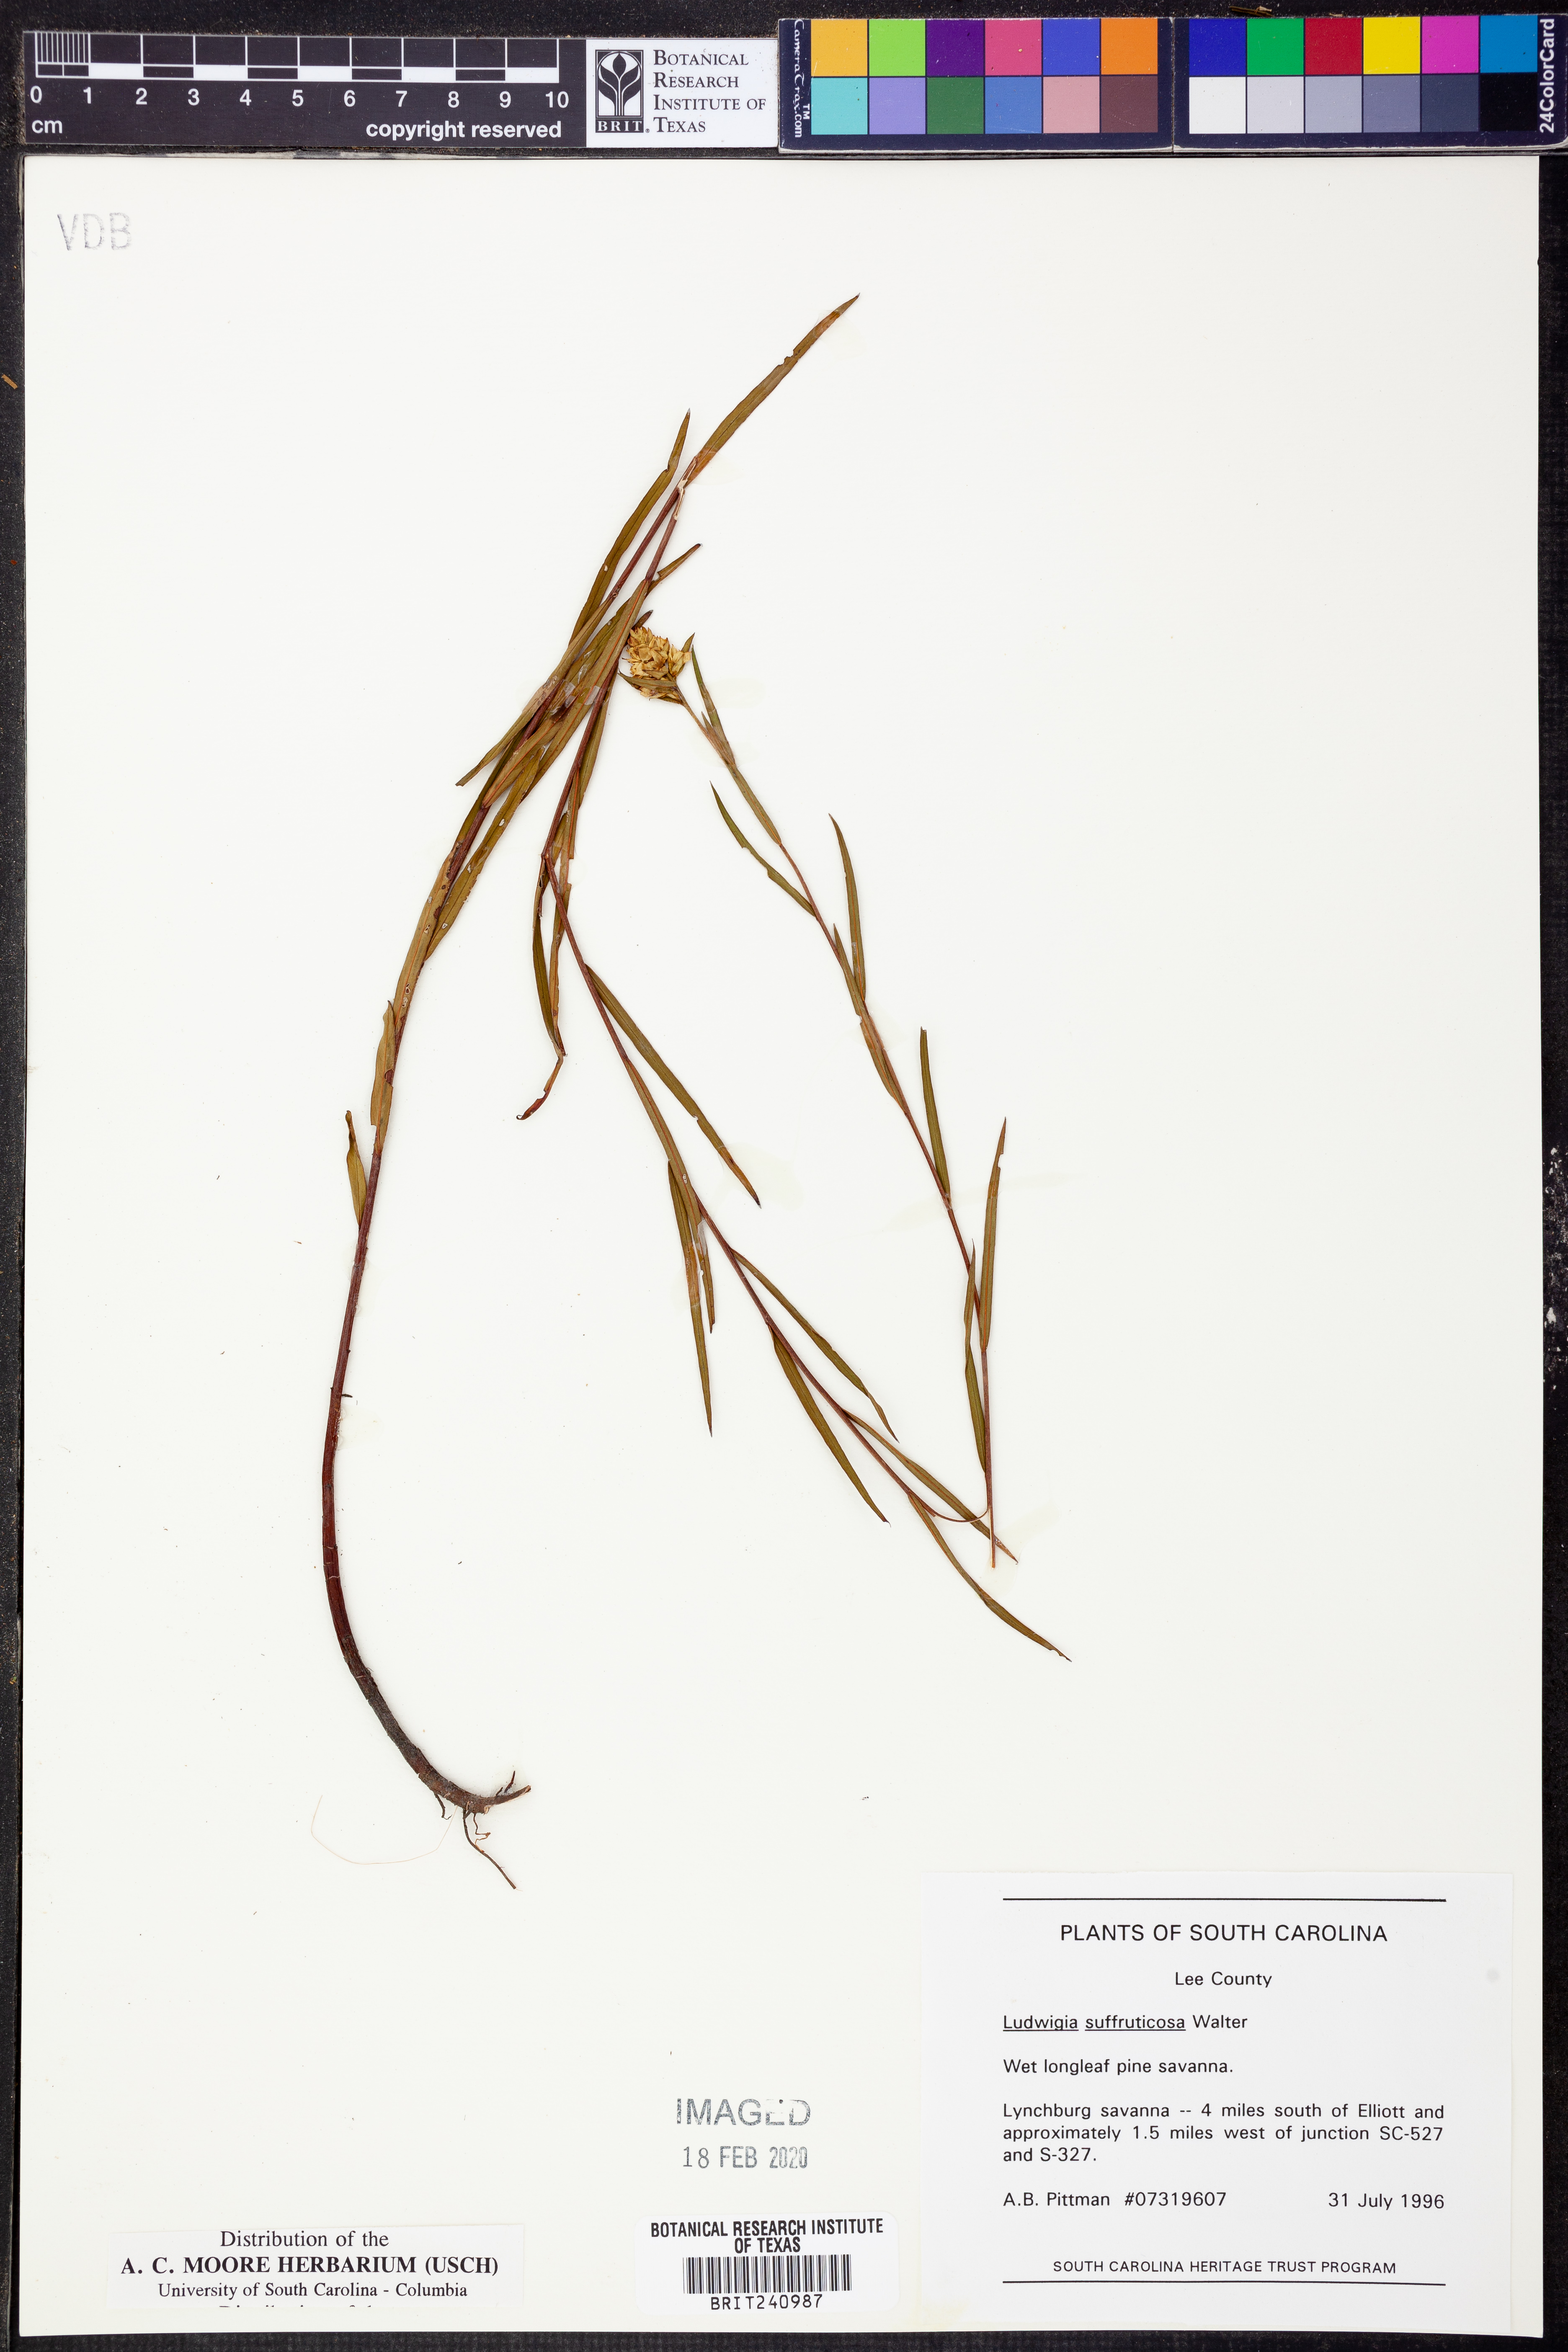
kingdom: Plantae
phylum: Tracheophyta
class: Magnoliopsida
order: Myrtales
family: Onagraceae
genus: Ludwigia
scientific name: Ludwigia suffruticosa
